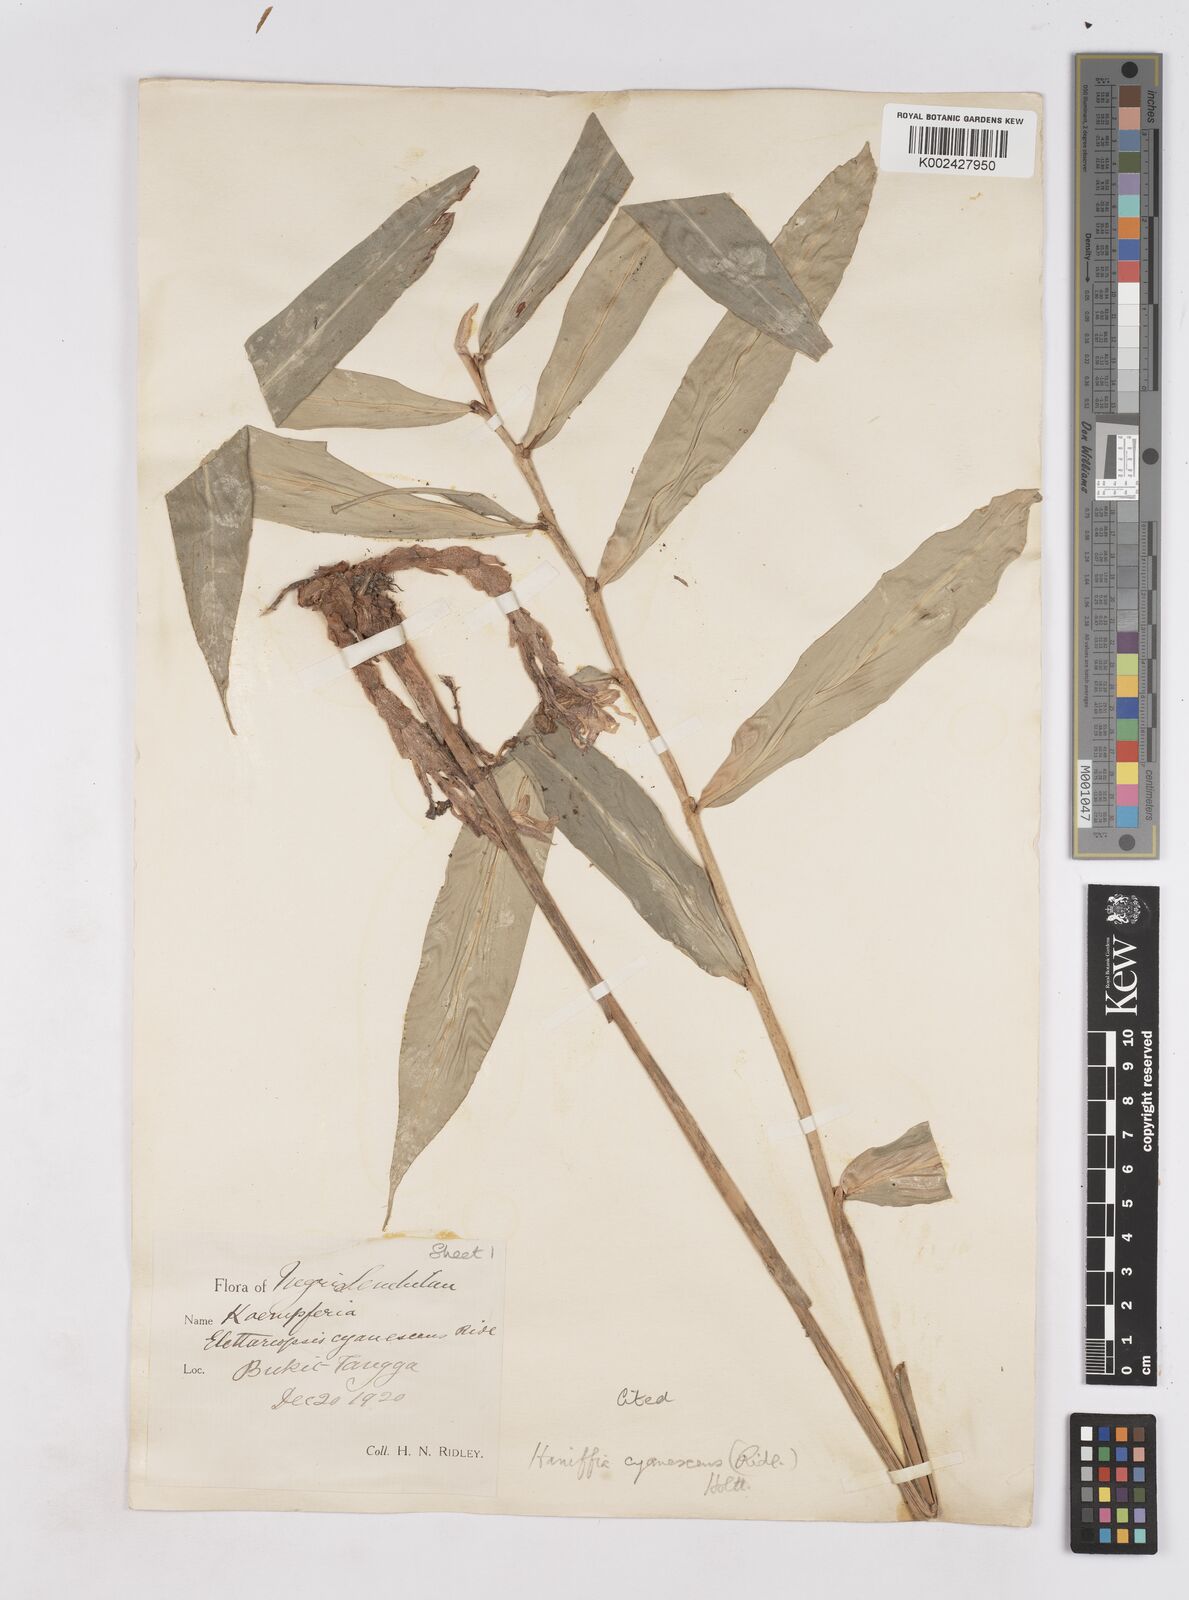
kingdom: Plantae
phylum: Tracheophyta
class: Liliopsida
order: Zingiberales
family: Zingiberaceae
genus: Haniffia
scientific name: Haniffia cyanescens
